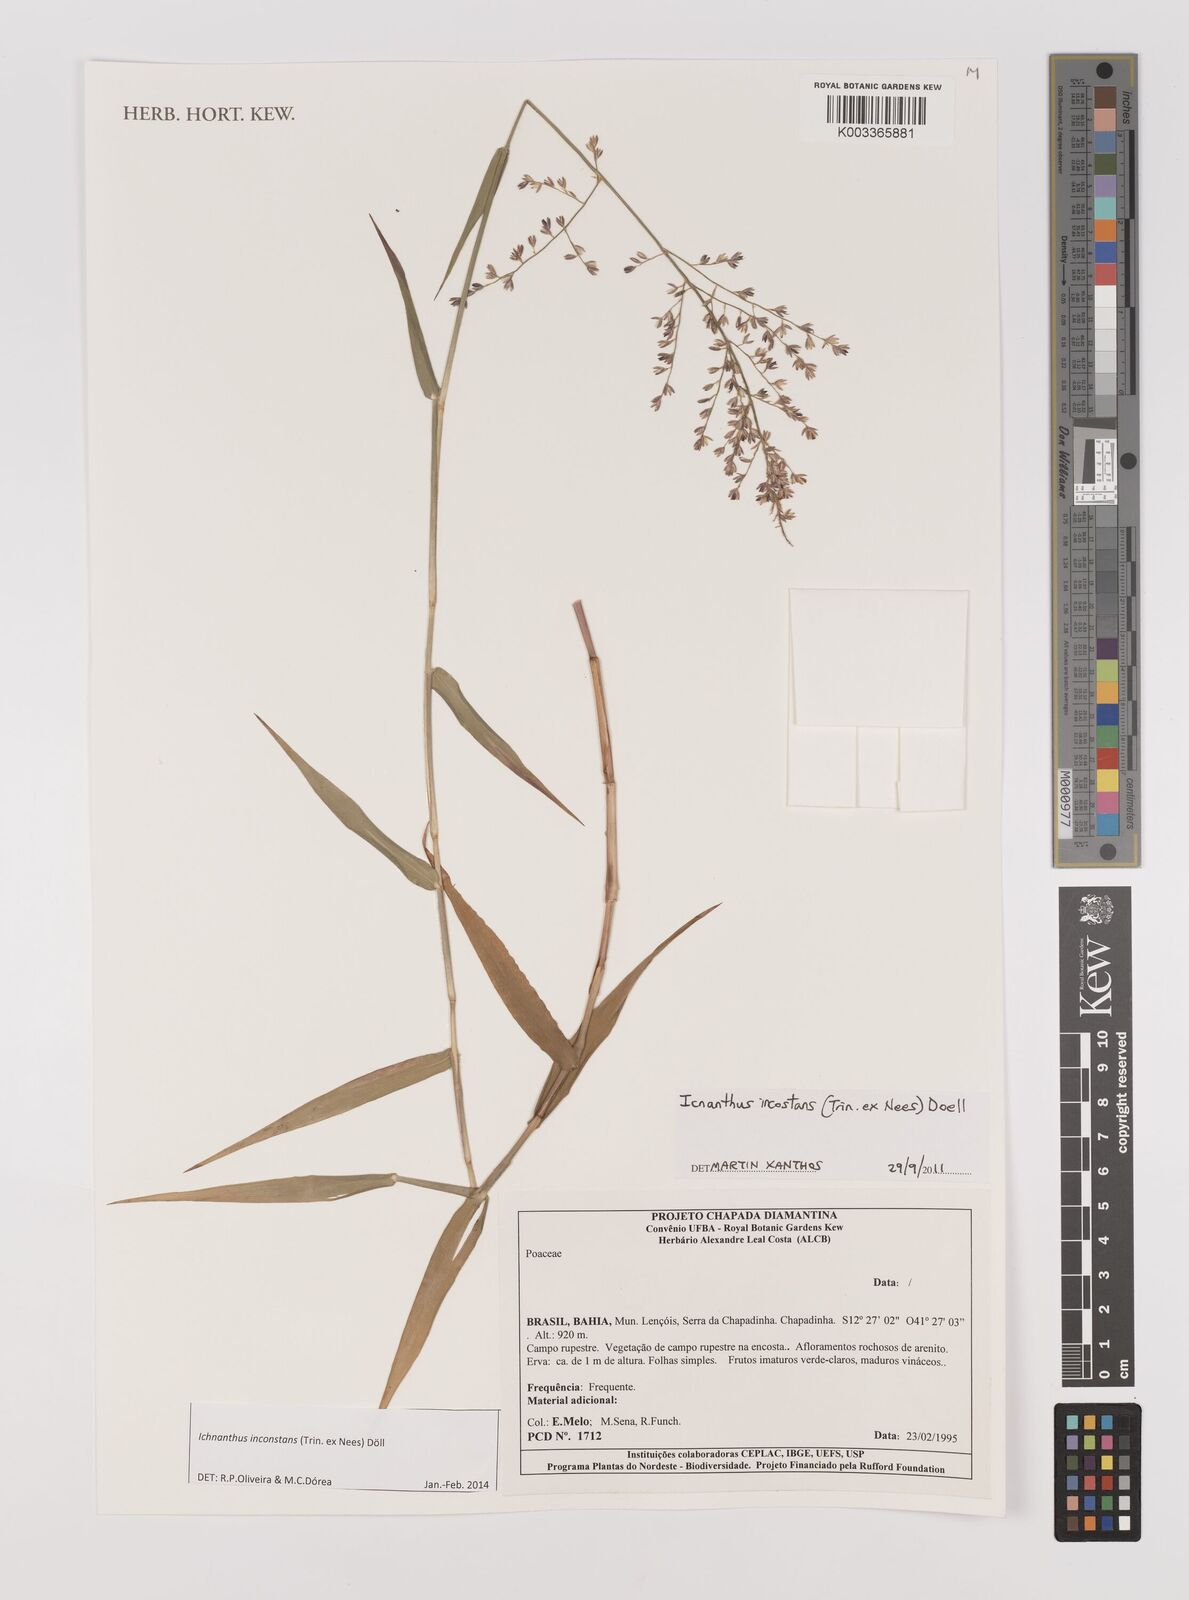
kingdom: Plantae
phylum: Tracheophyta
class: Liliopsida
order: Poales
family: Poaceae
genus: Ichnanthus
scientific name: Ichnanthus inconstans
